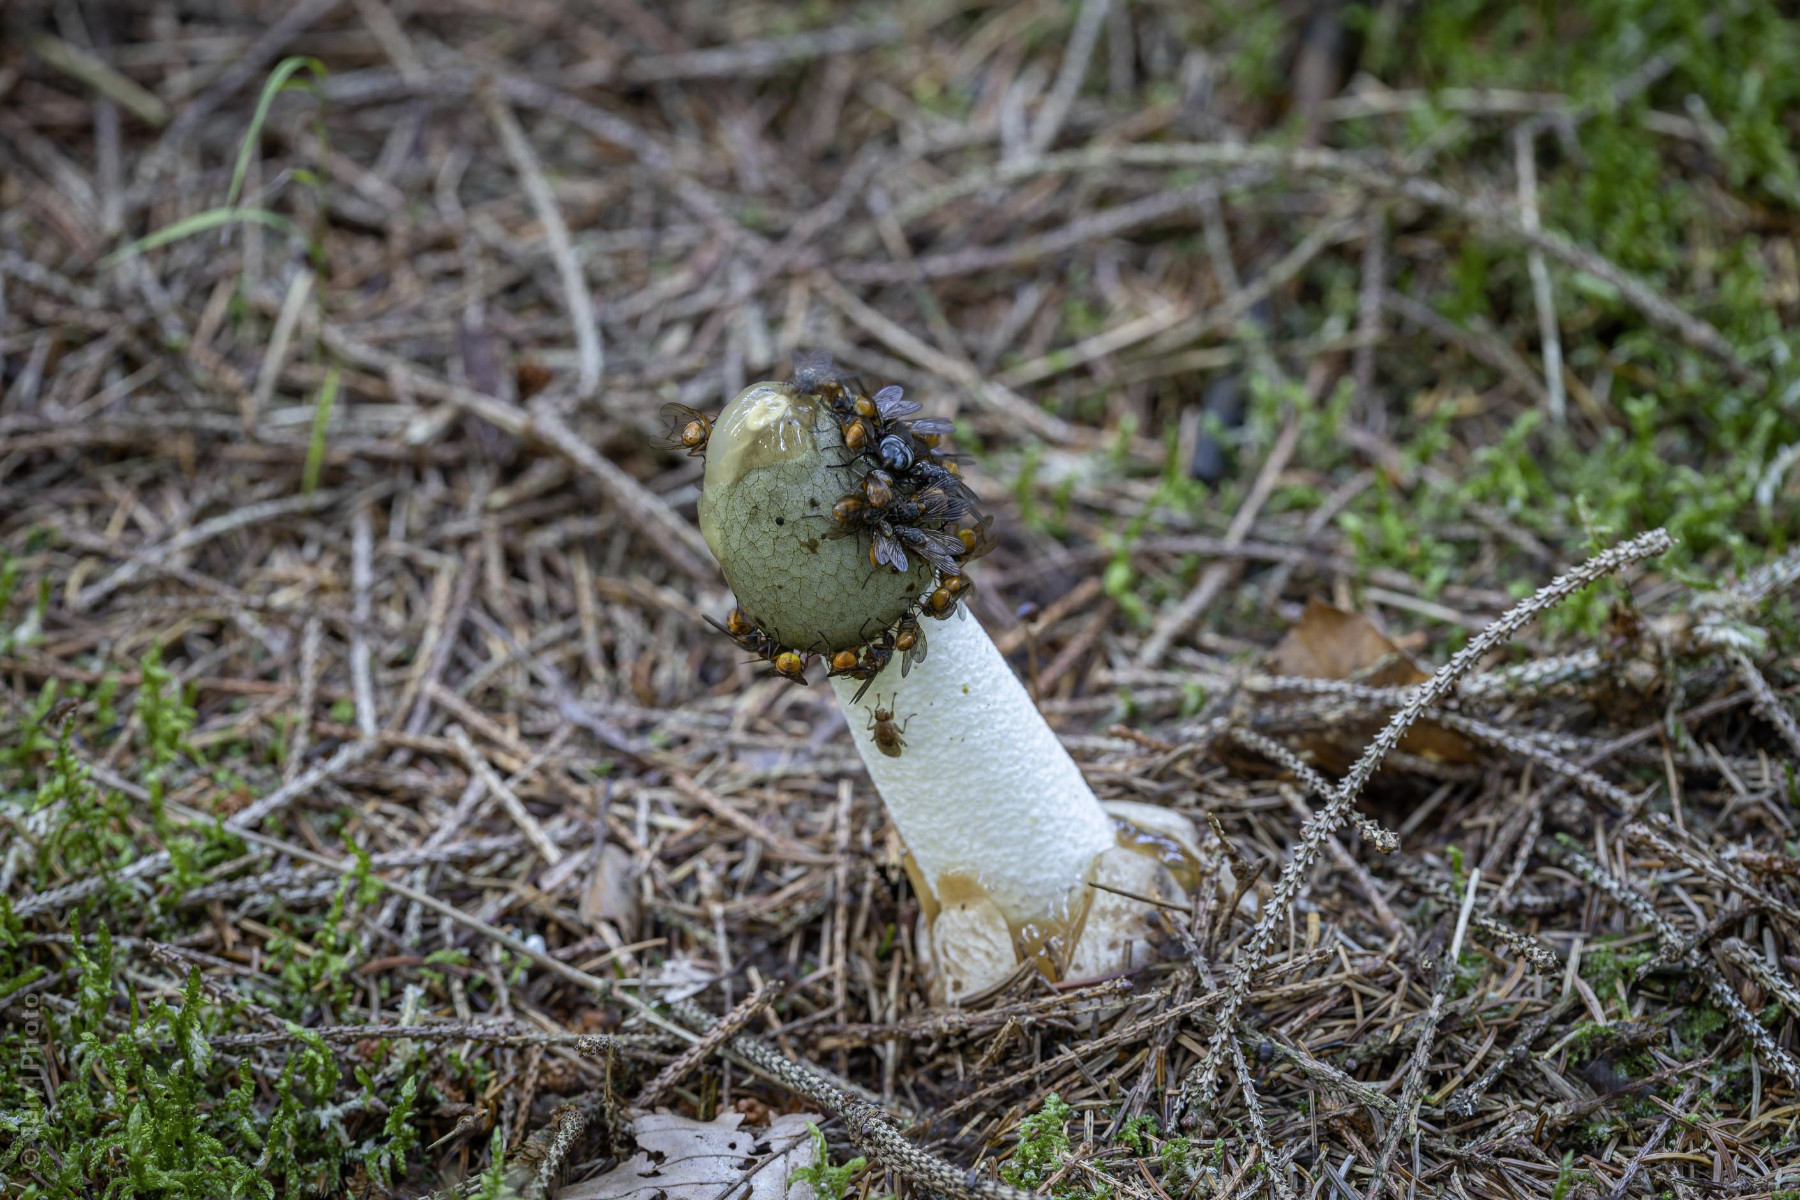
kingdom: Fungi
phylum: Basidiomycota
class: Agaricomycetes
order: Phallales
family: Phallaceae
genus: Phallus
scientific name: Phallus impudicus
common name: almindelig stinksvamp
